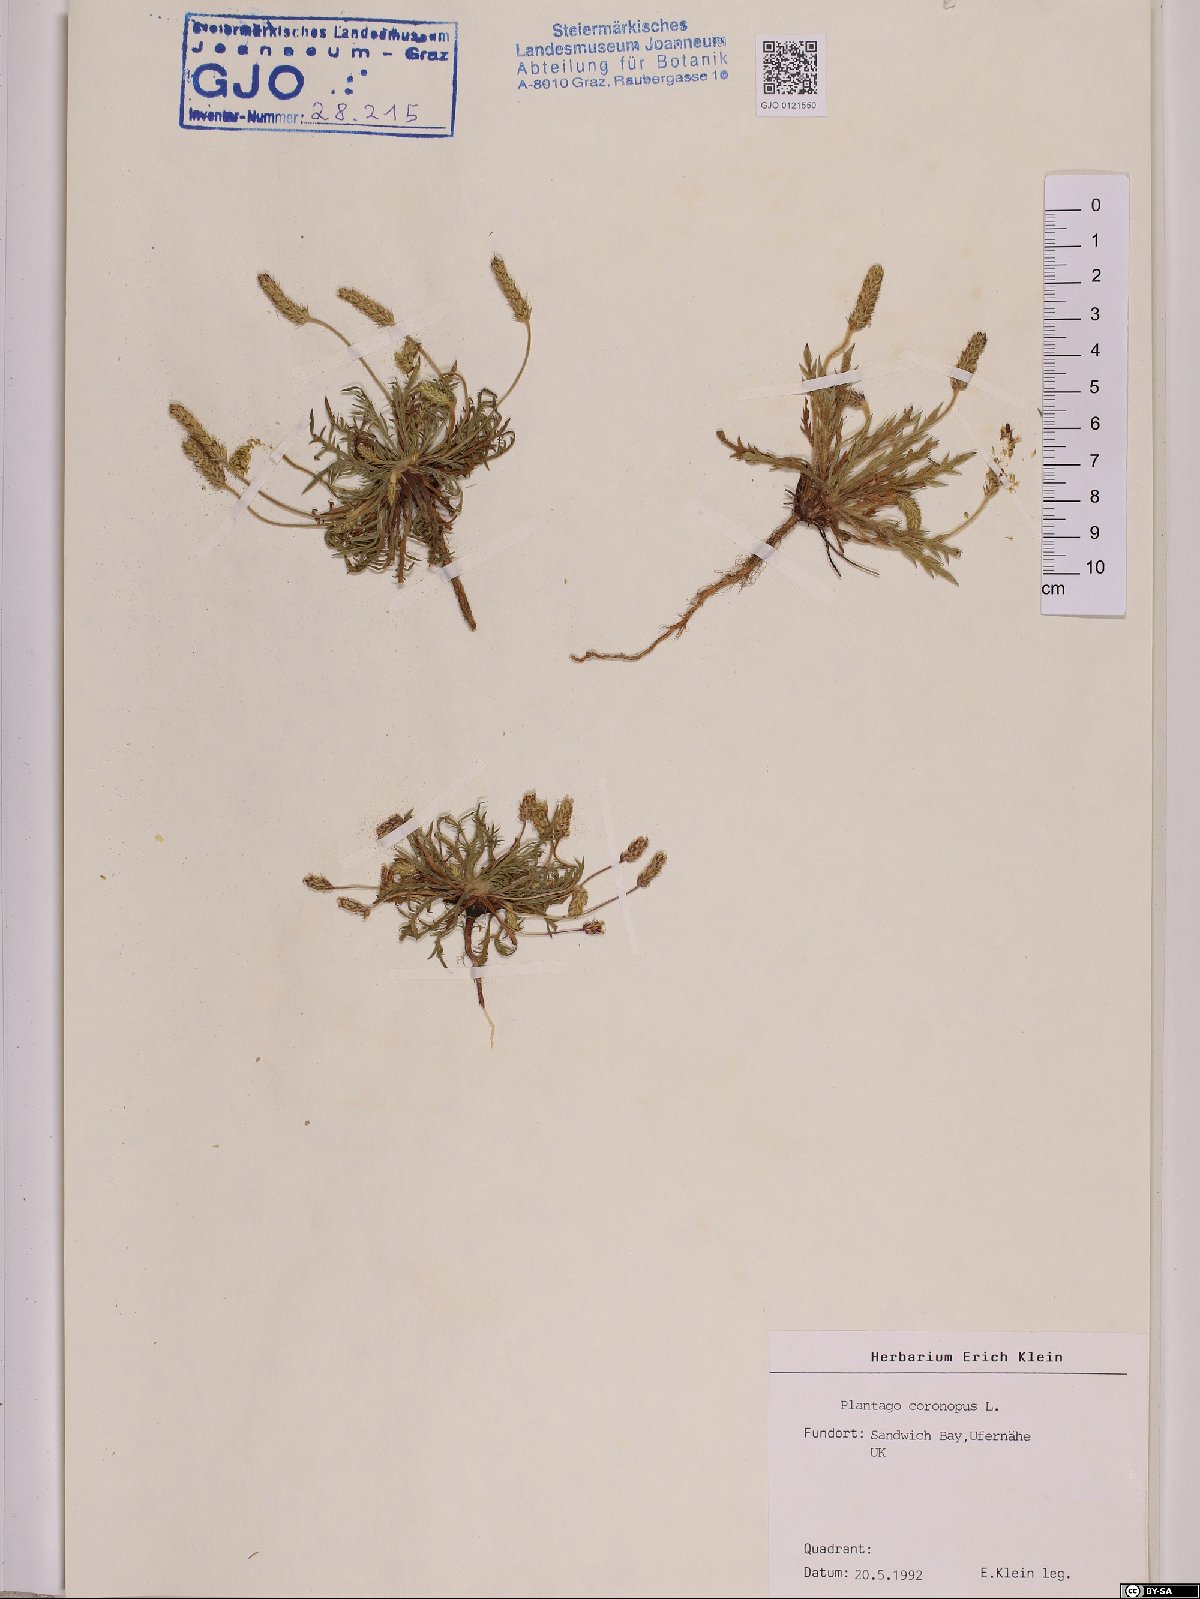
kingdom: Plantae
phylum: Tracheophyta
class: Magnoliopsida
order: Lamiales
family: Plantaginaceae
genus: Plantago
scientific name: Plantago coronopus
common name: Buck's-horn plantain
